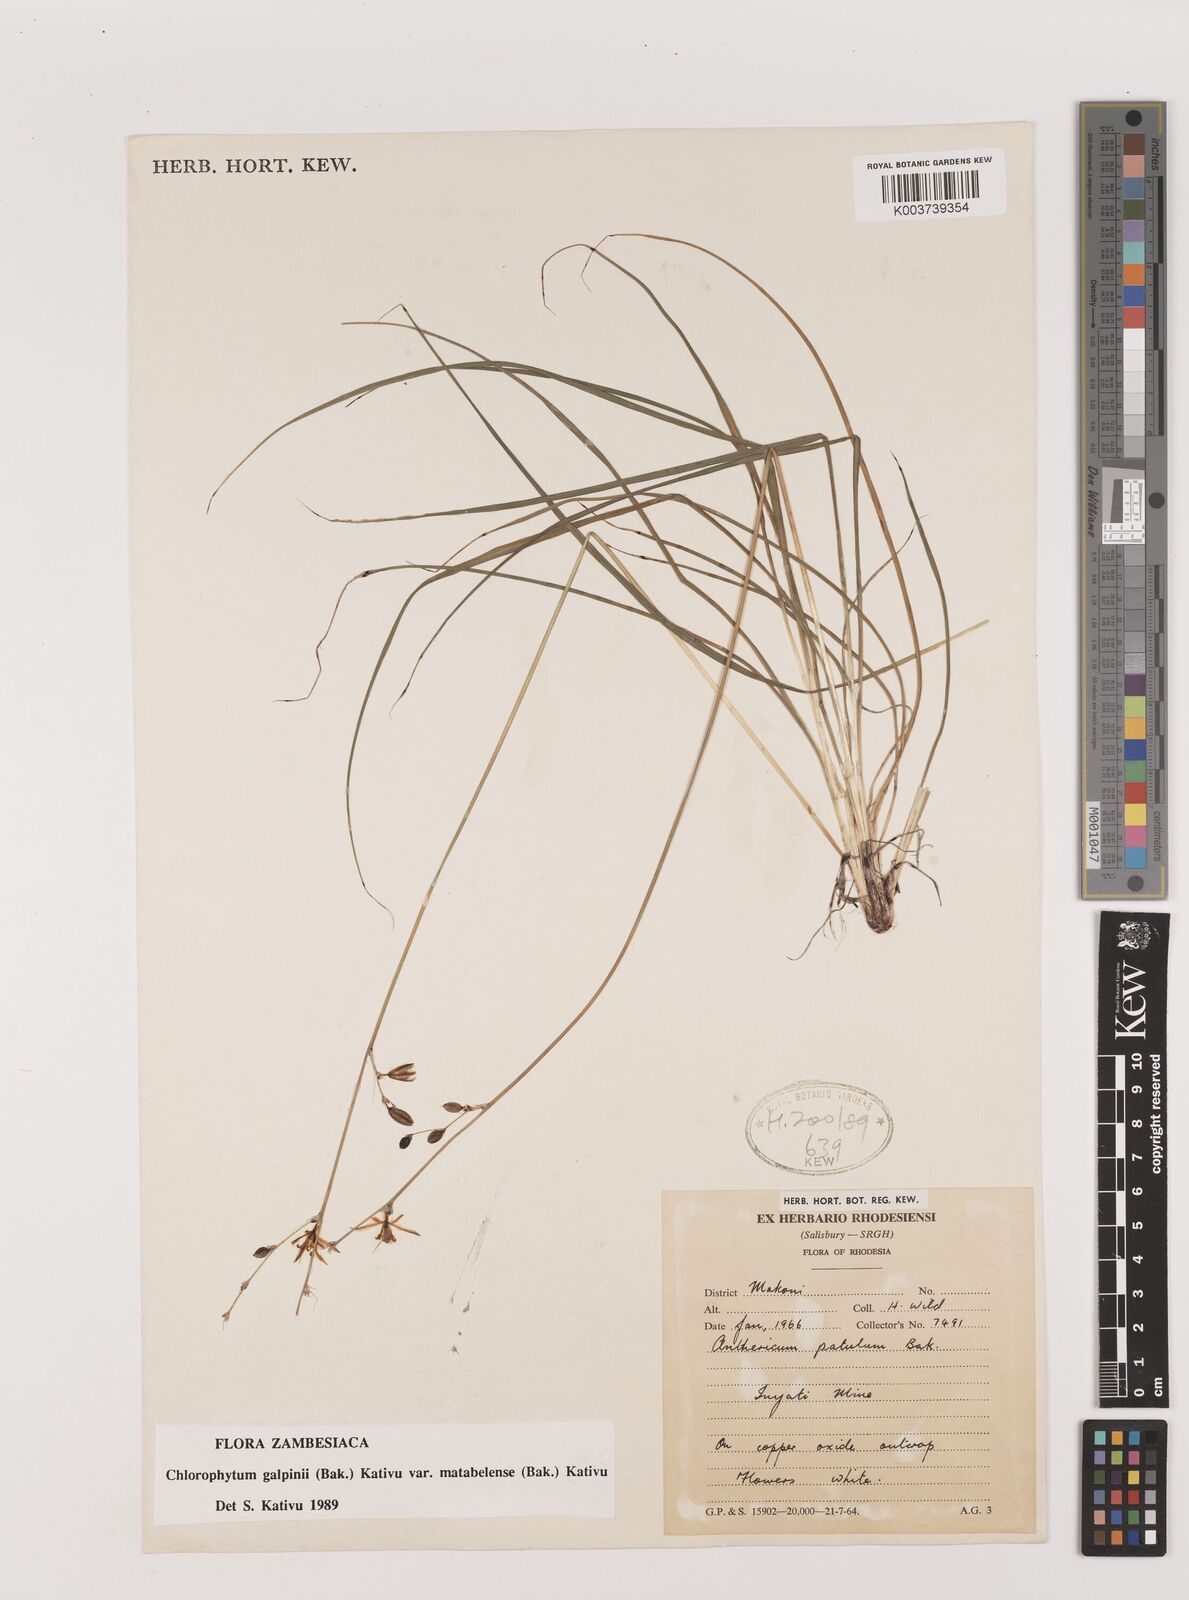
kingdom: Plantae
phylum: Tracheophyta
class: Liliopsida
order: Asparagales
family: Asparagaceae
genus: Chlorophytum
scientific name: Chlorophytum galpinii
